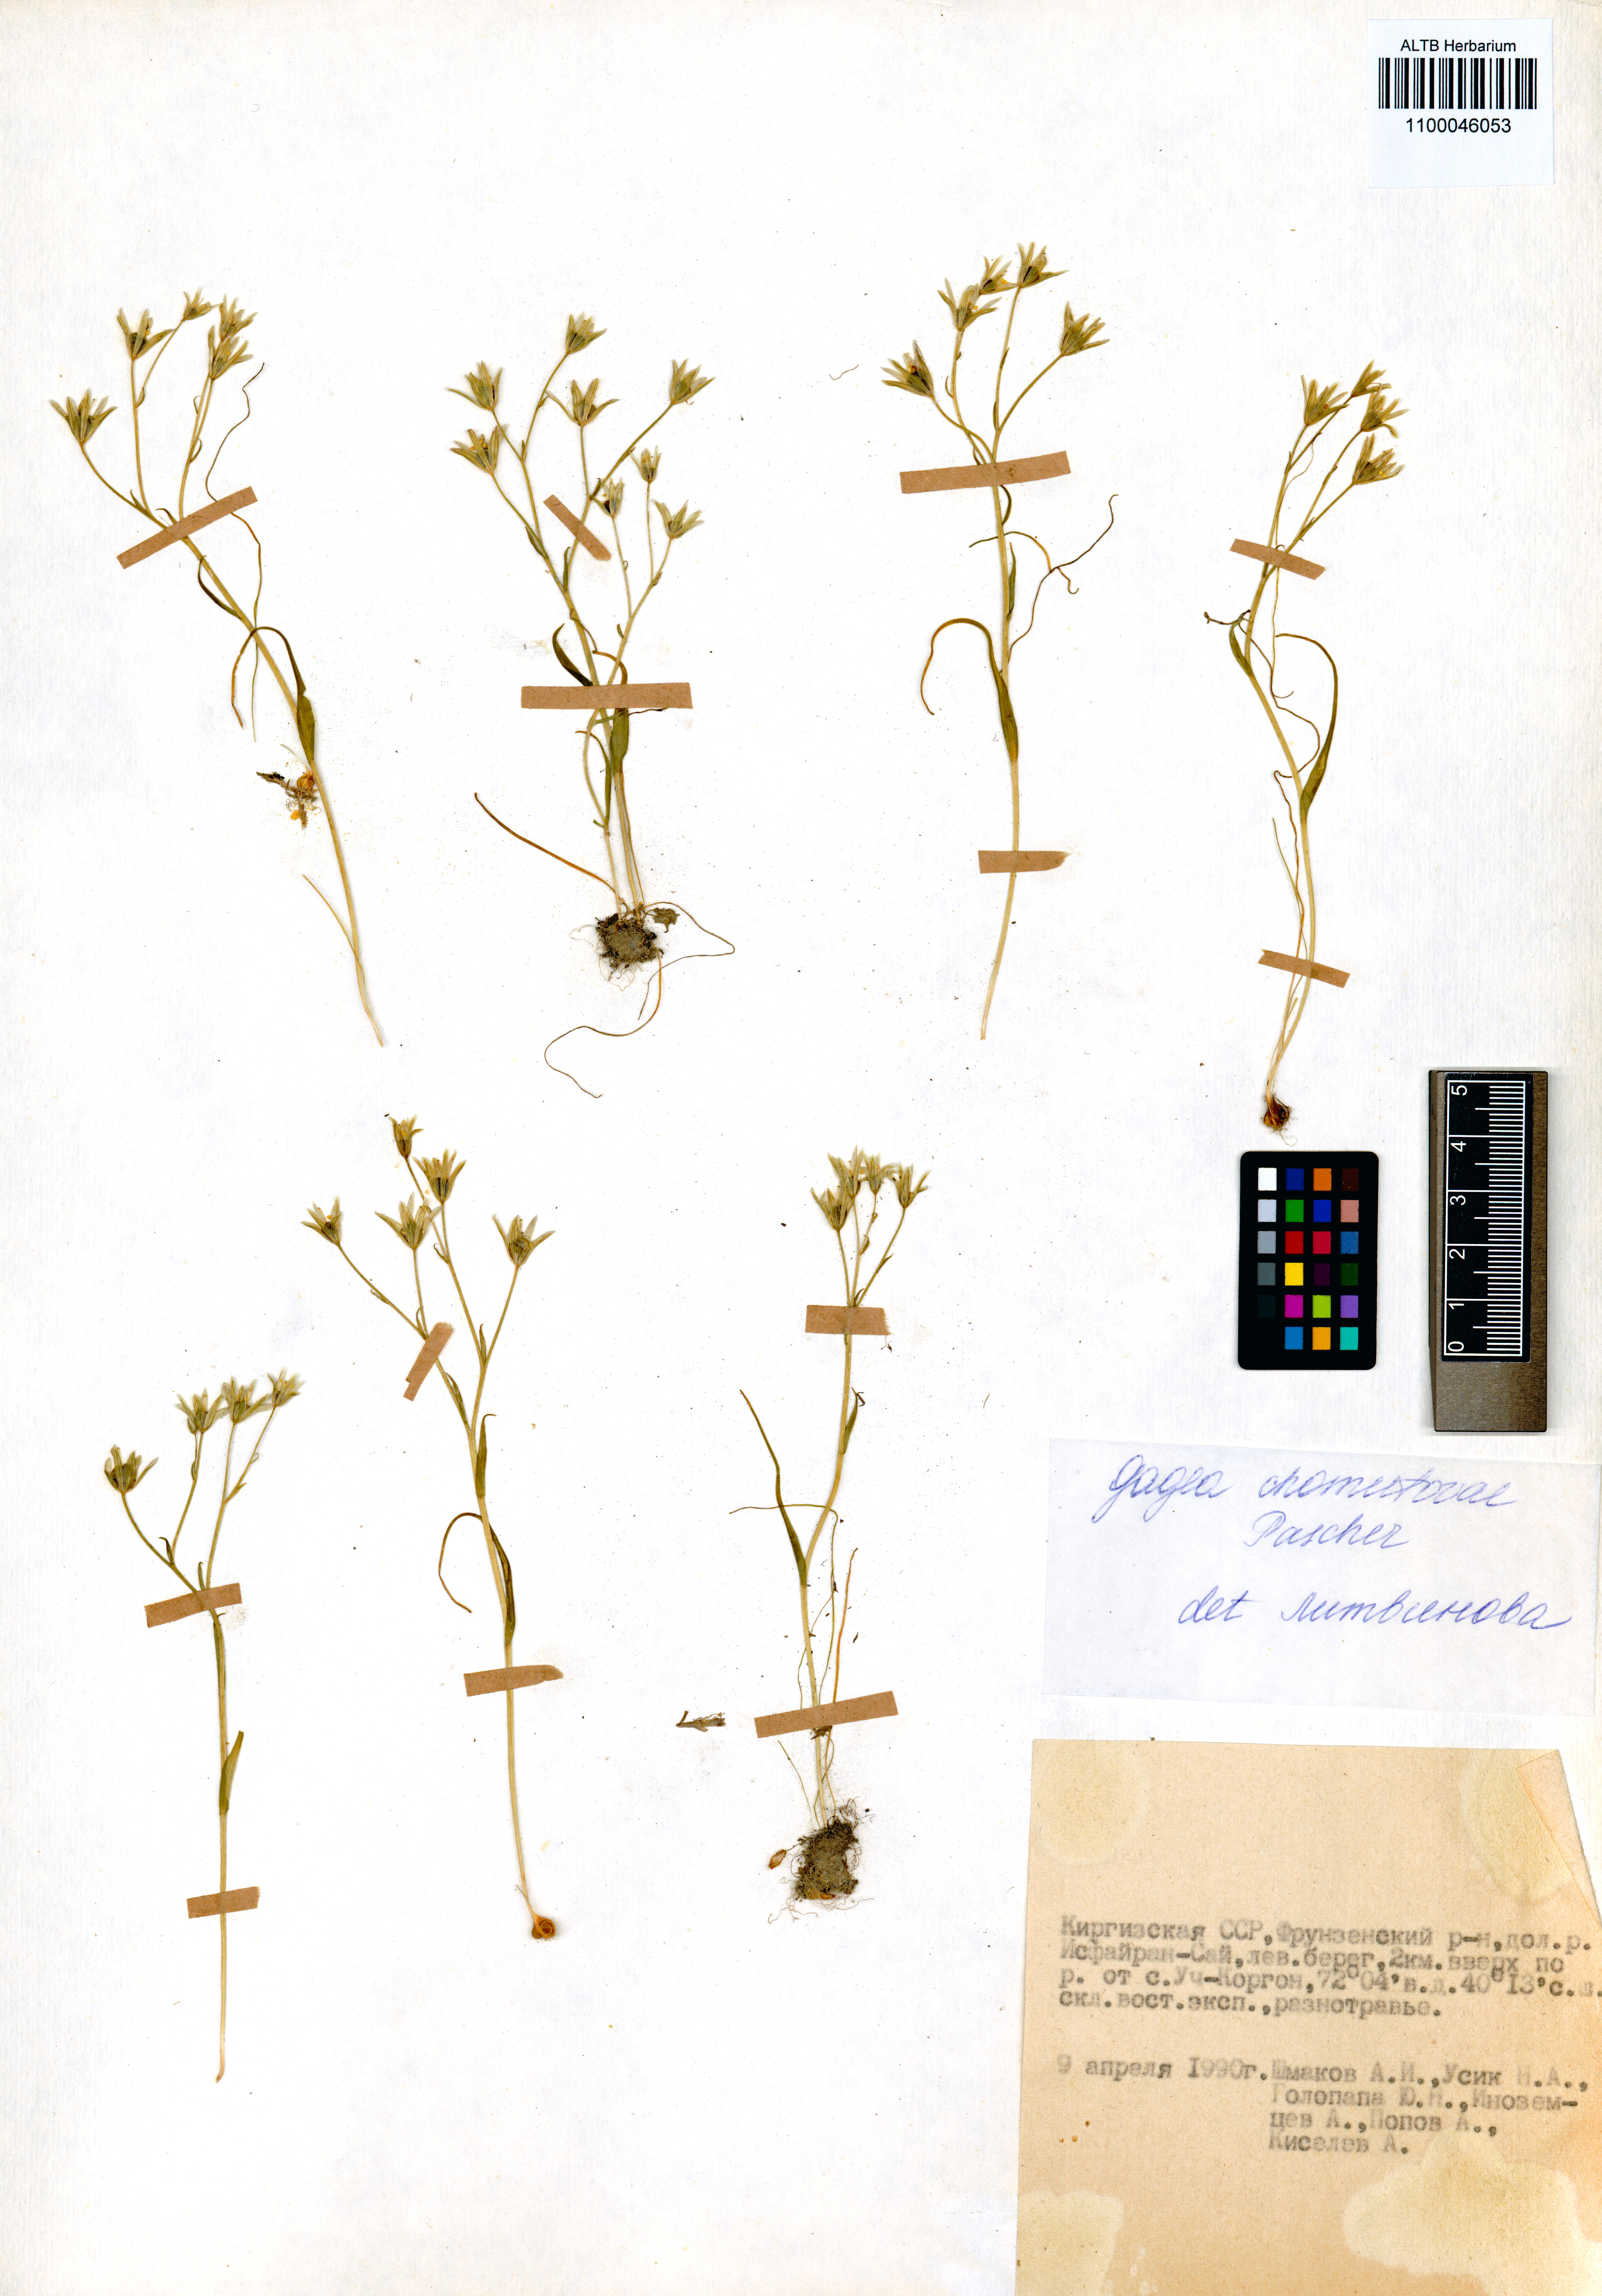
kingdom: Plantae
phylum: Tracheophyta
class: Liliopsida
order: Liliales
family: Liliaceae
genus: Gagea
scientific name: Gagea chomutowae
